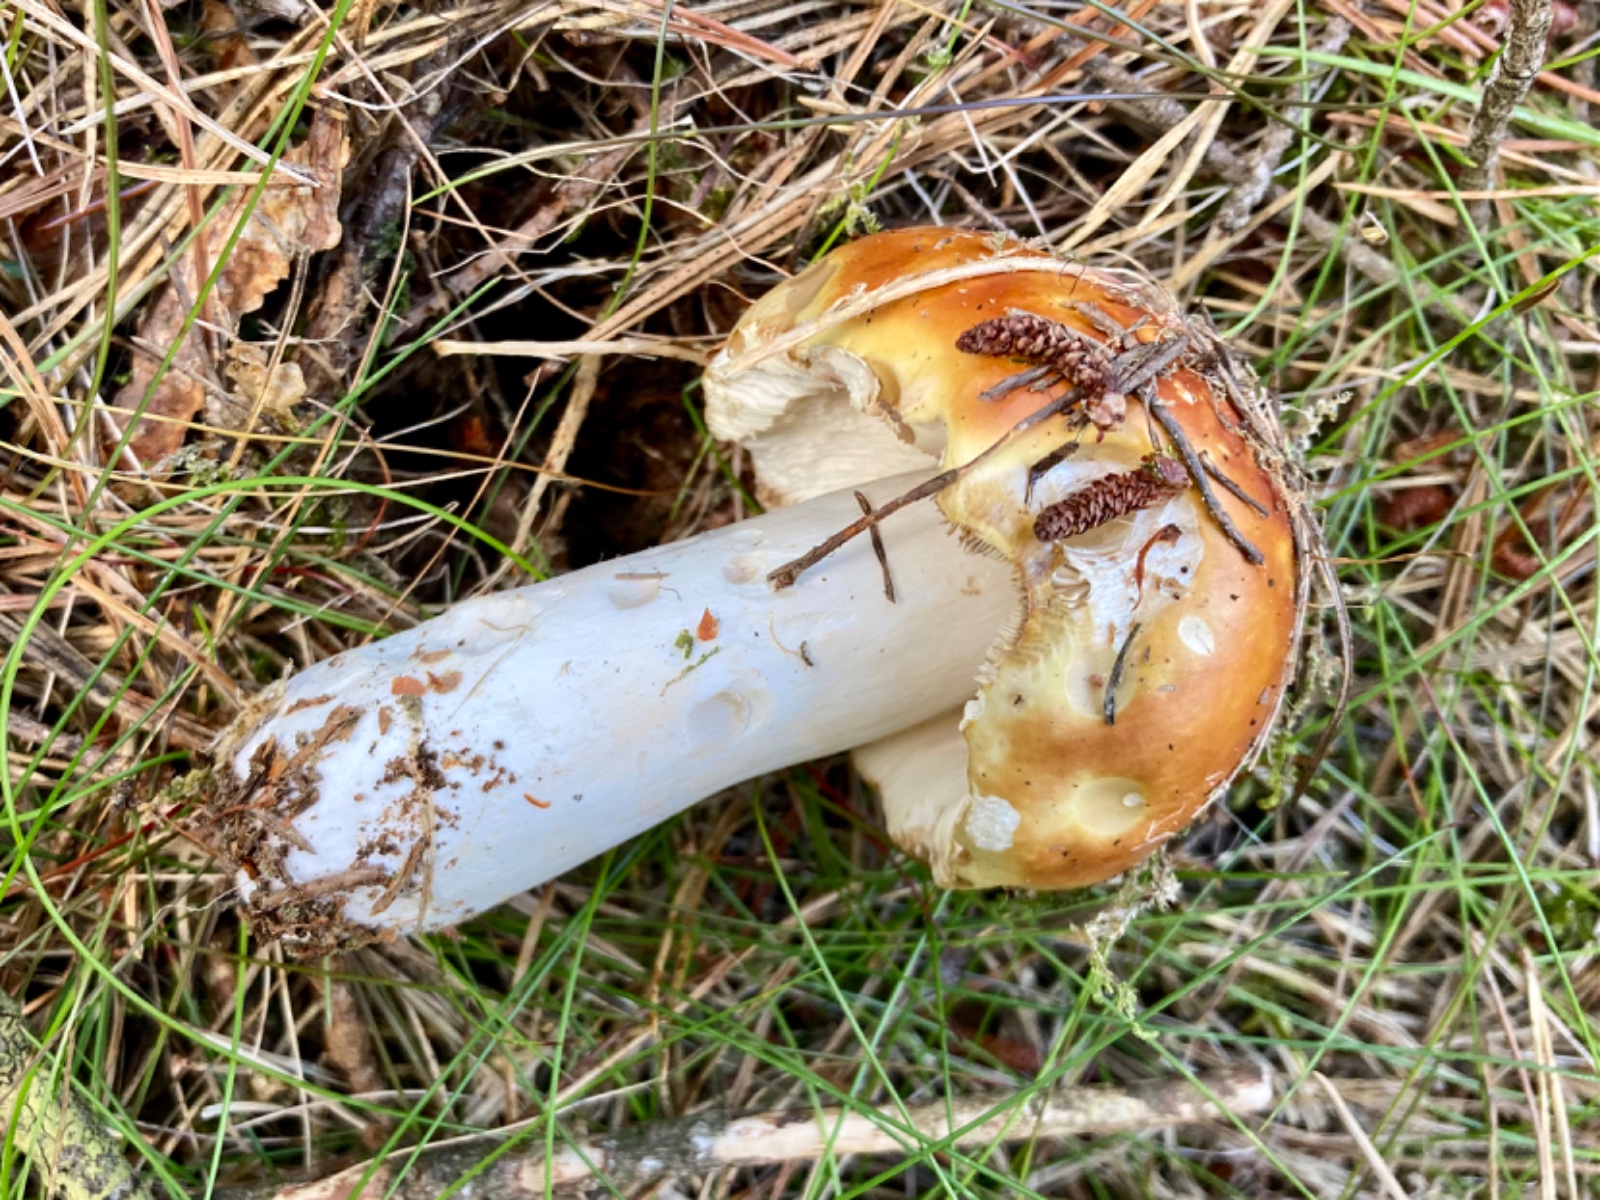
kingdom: Fungi
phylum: Basidiomycota
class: Agaricomycetes
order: Russulales
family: Russulaceae
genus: Russula
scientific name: Russula decolorans
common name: afblegende skørhat
